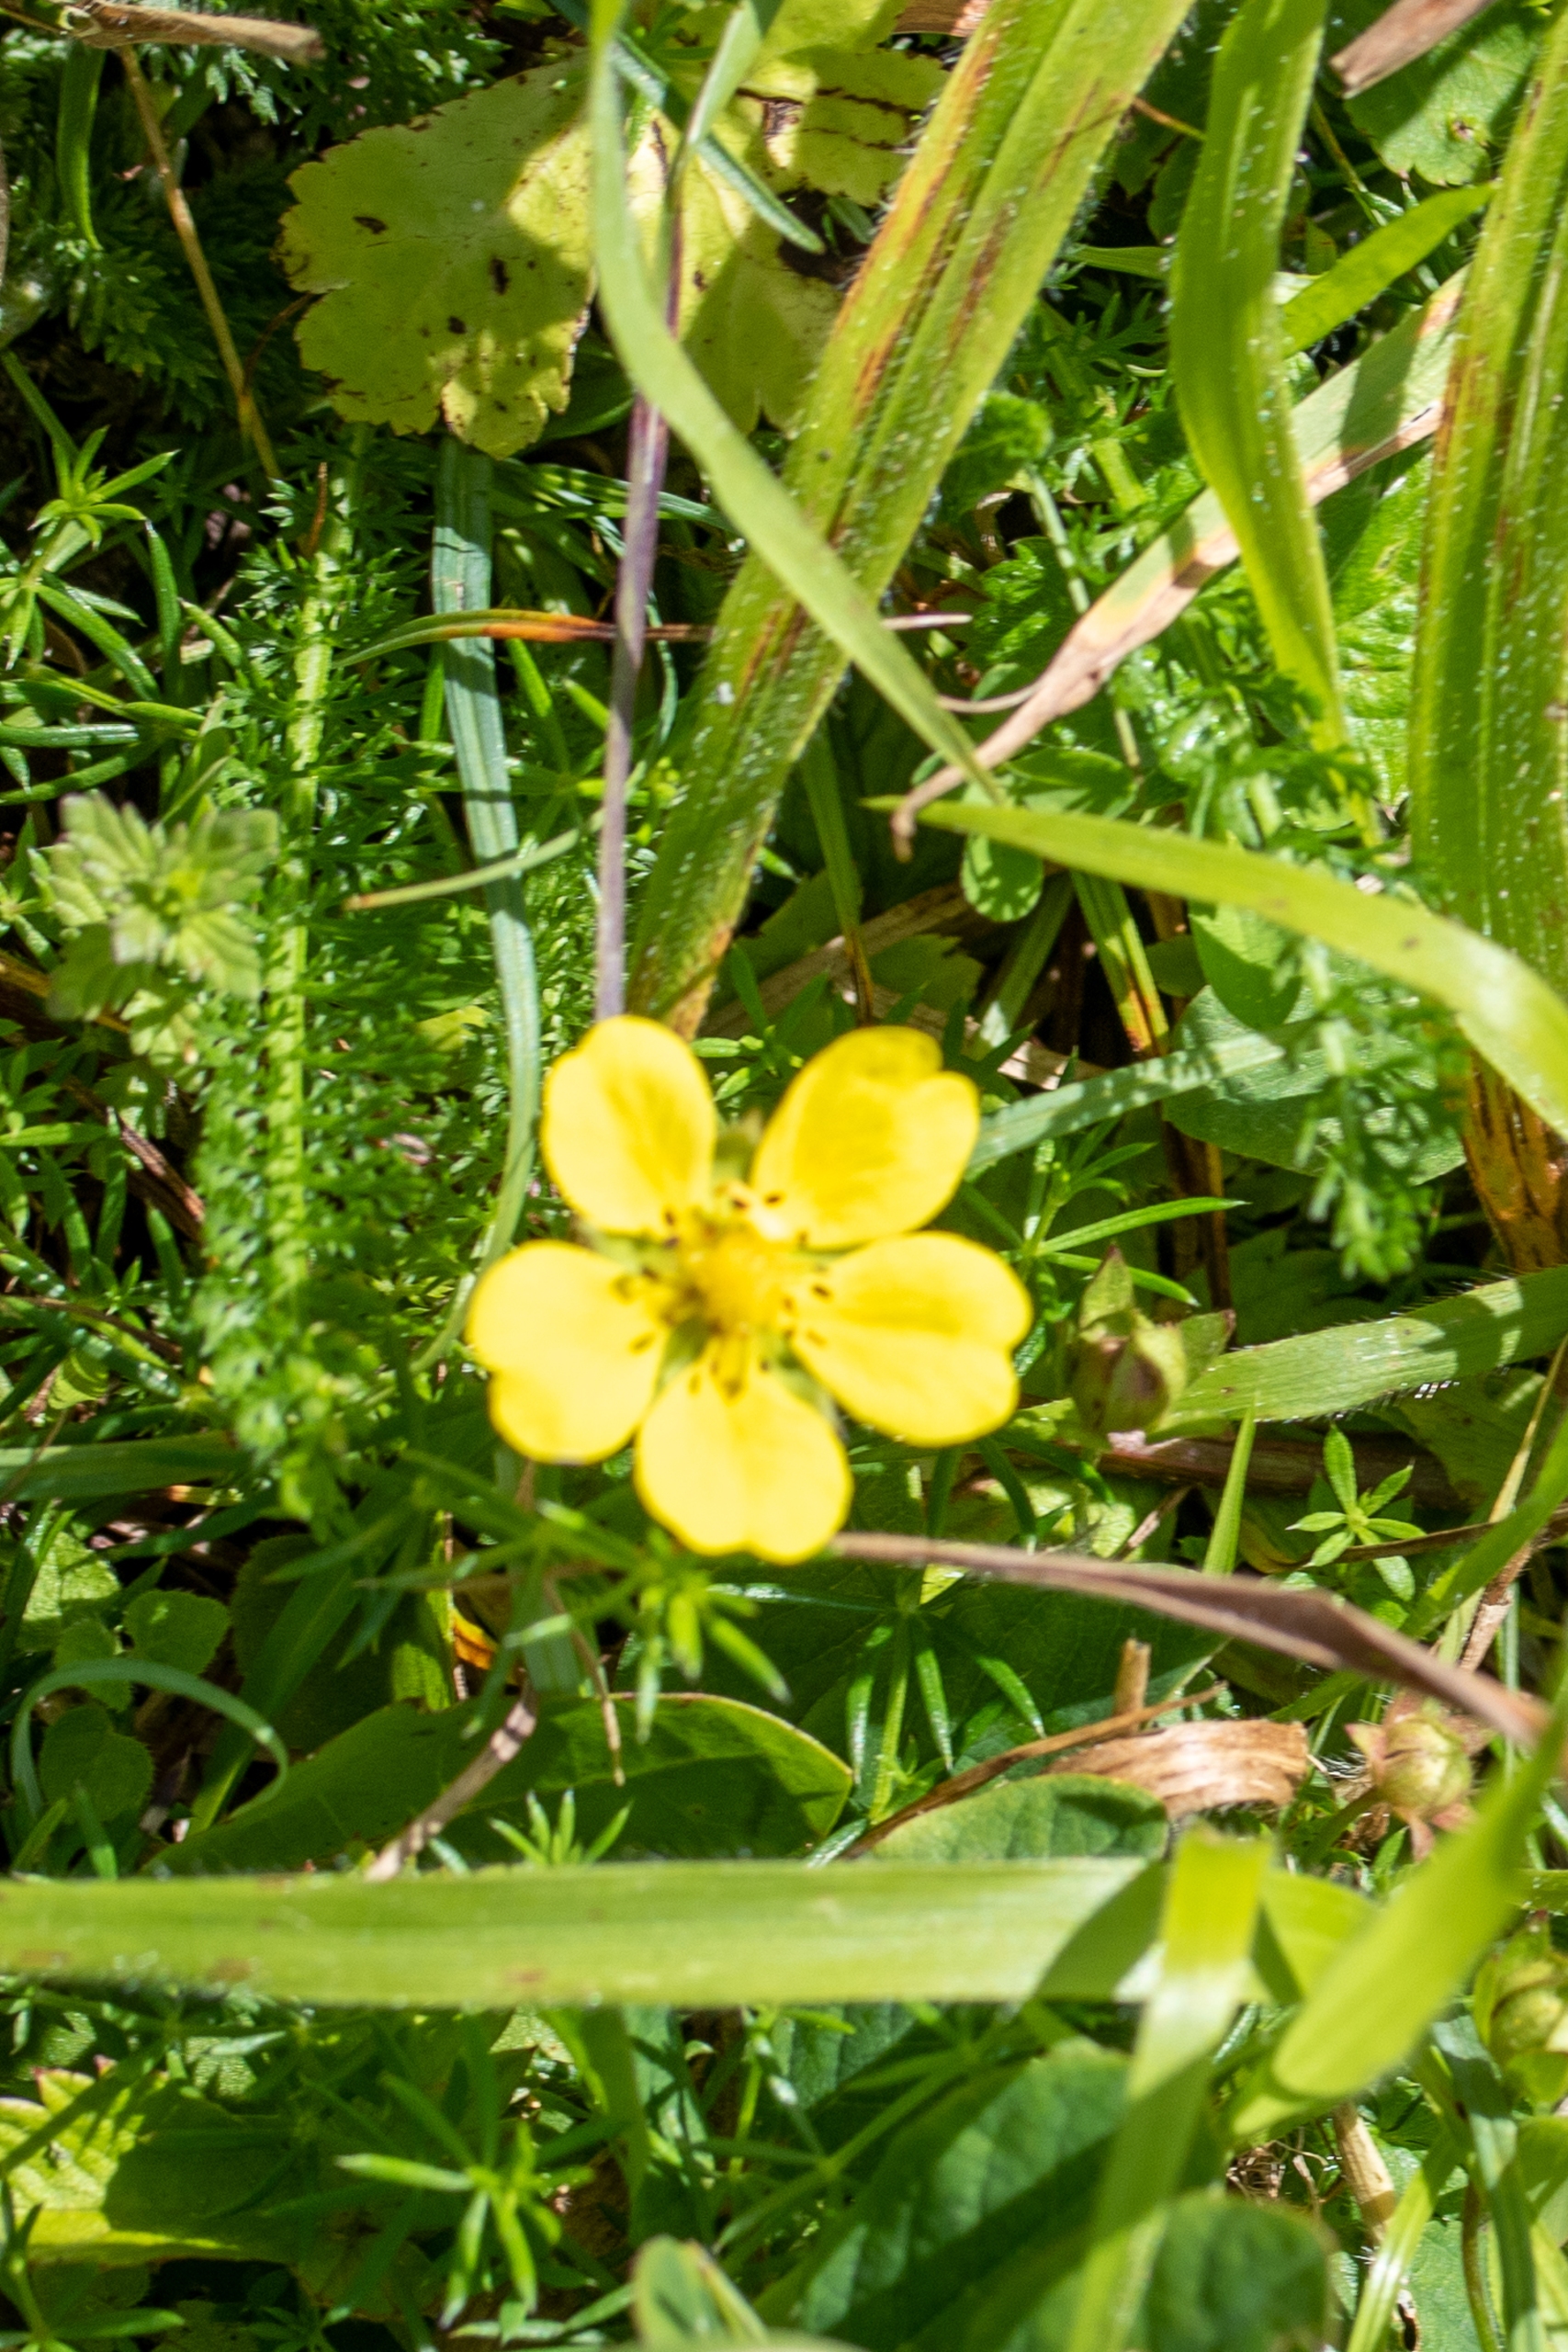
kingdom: Plantae
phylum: Tracheophyta
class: Magnoliopsida
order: Rosales
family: Rosaceae
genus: Potentilla
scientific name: Potentilla reptans
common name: Krybende potentil
